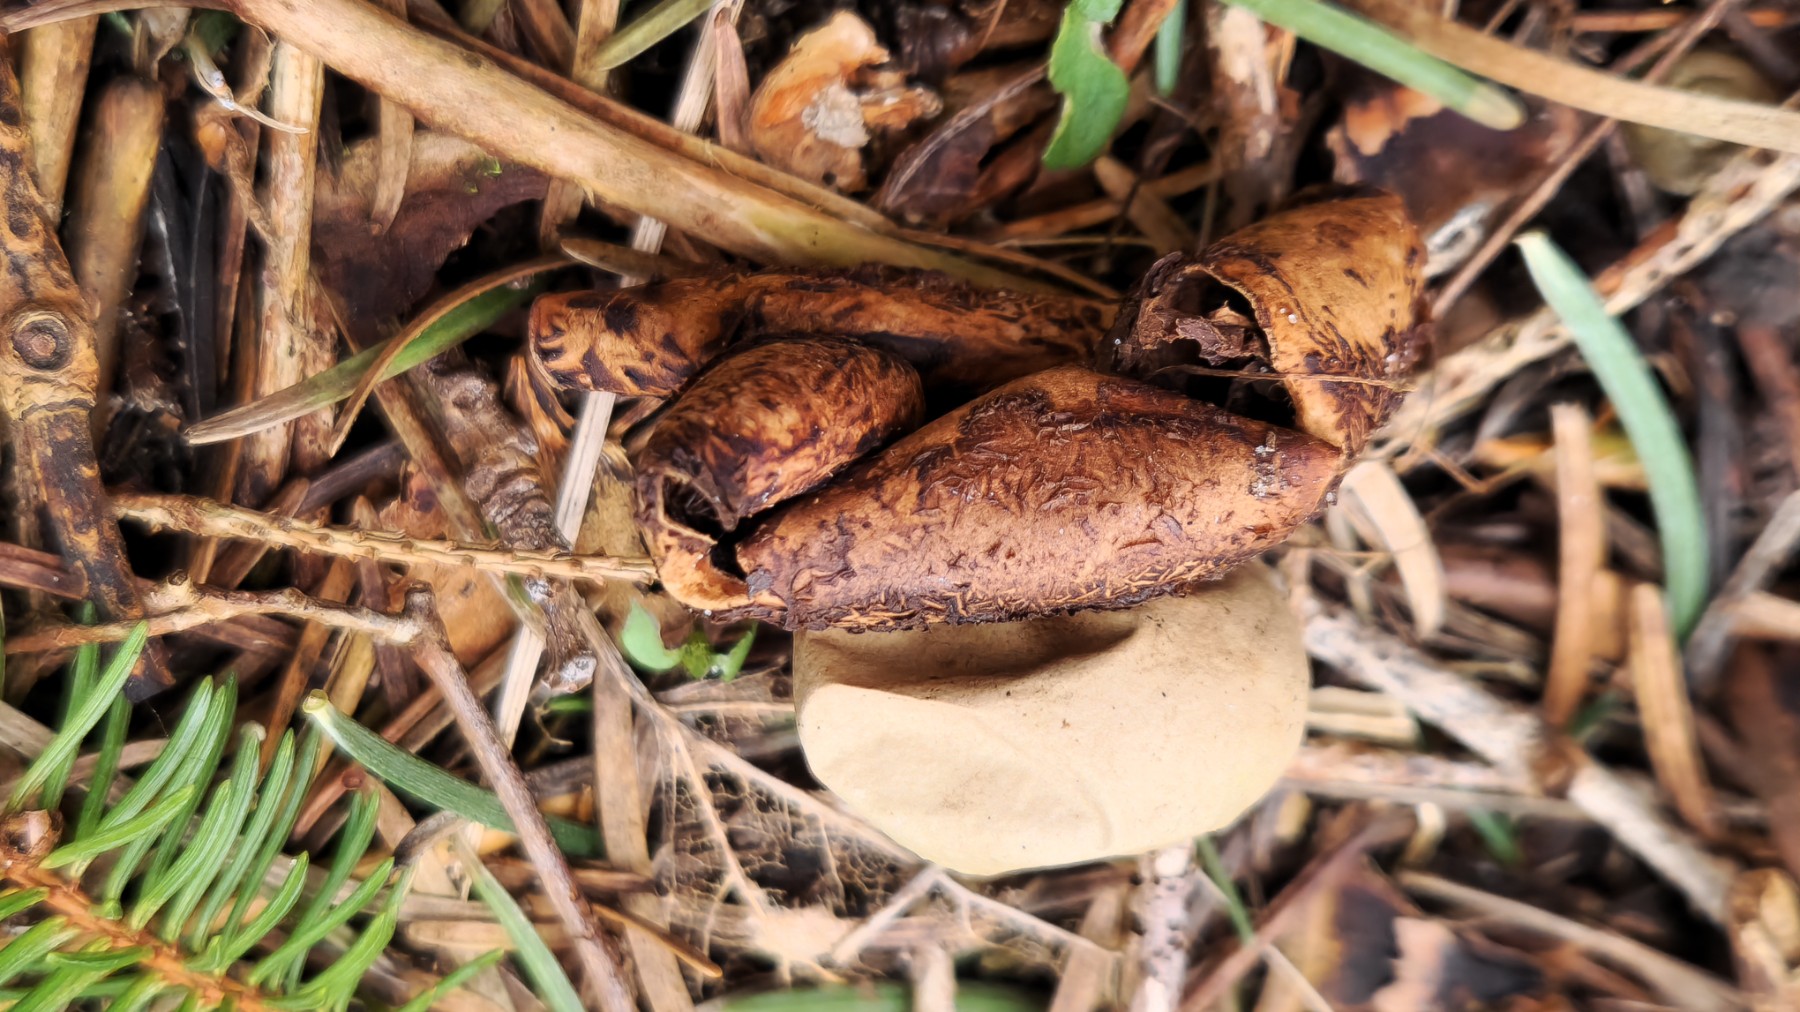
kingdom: Fungi
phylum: Basidiomycota
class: Agaricomycetes
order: Geastrales
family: Geastraceae
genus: Geastrum
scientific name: Geastrum
